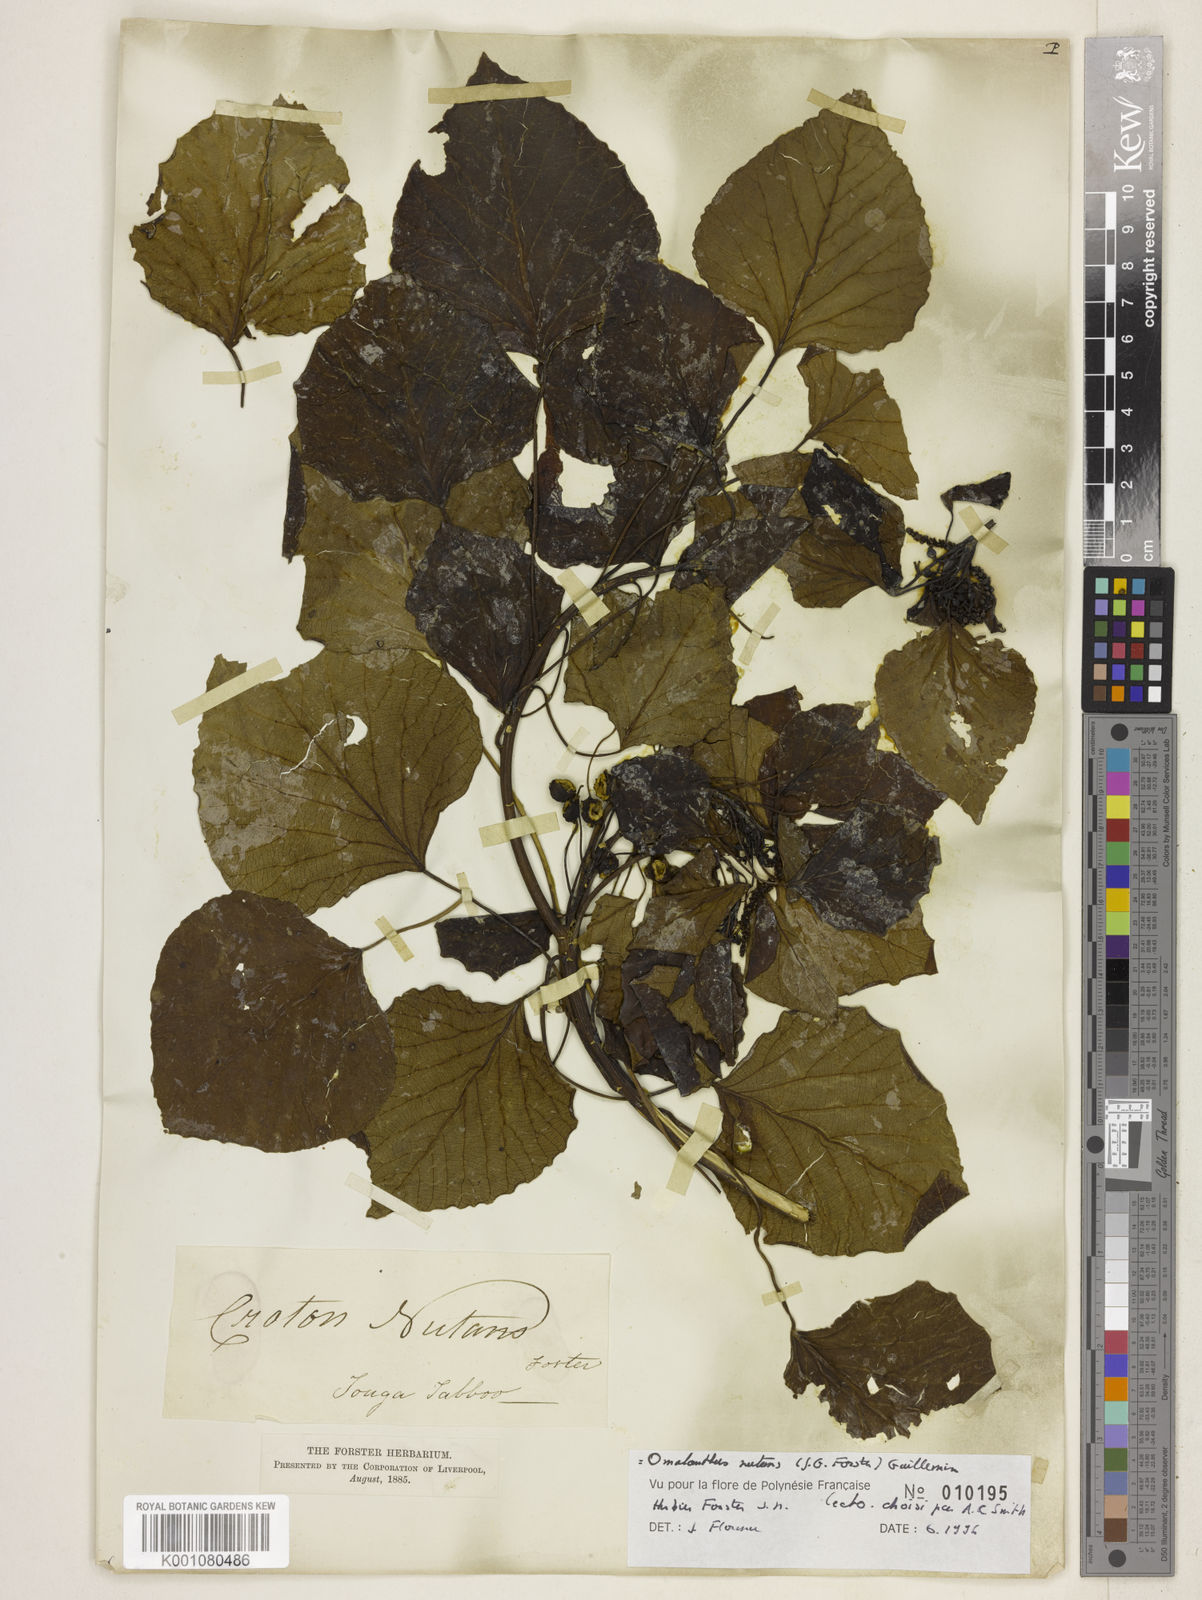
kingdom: Plantae
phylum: Tracheophyta
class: Magnoliopsida
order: Malpighiales
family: Euphorbiaceae
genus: Homalanthus
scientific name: Homalanthus nutans
